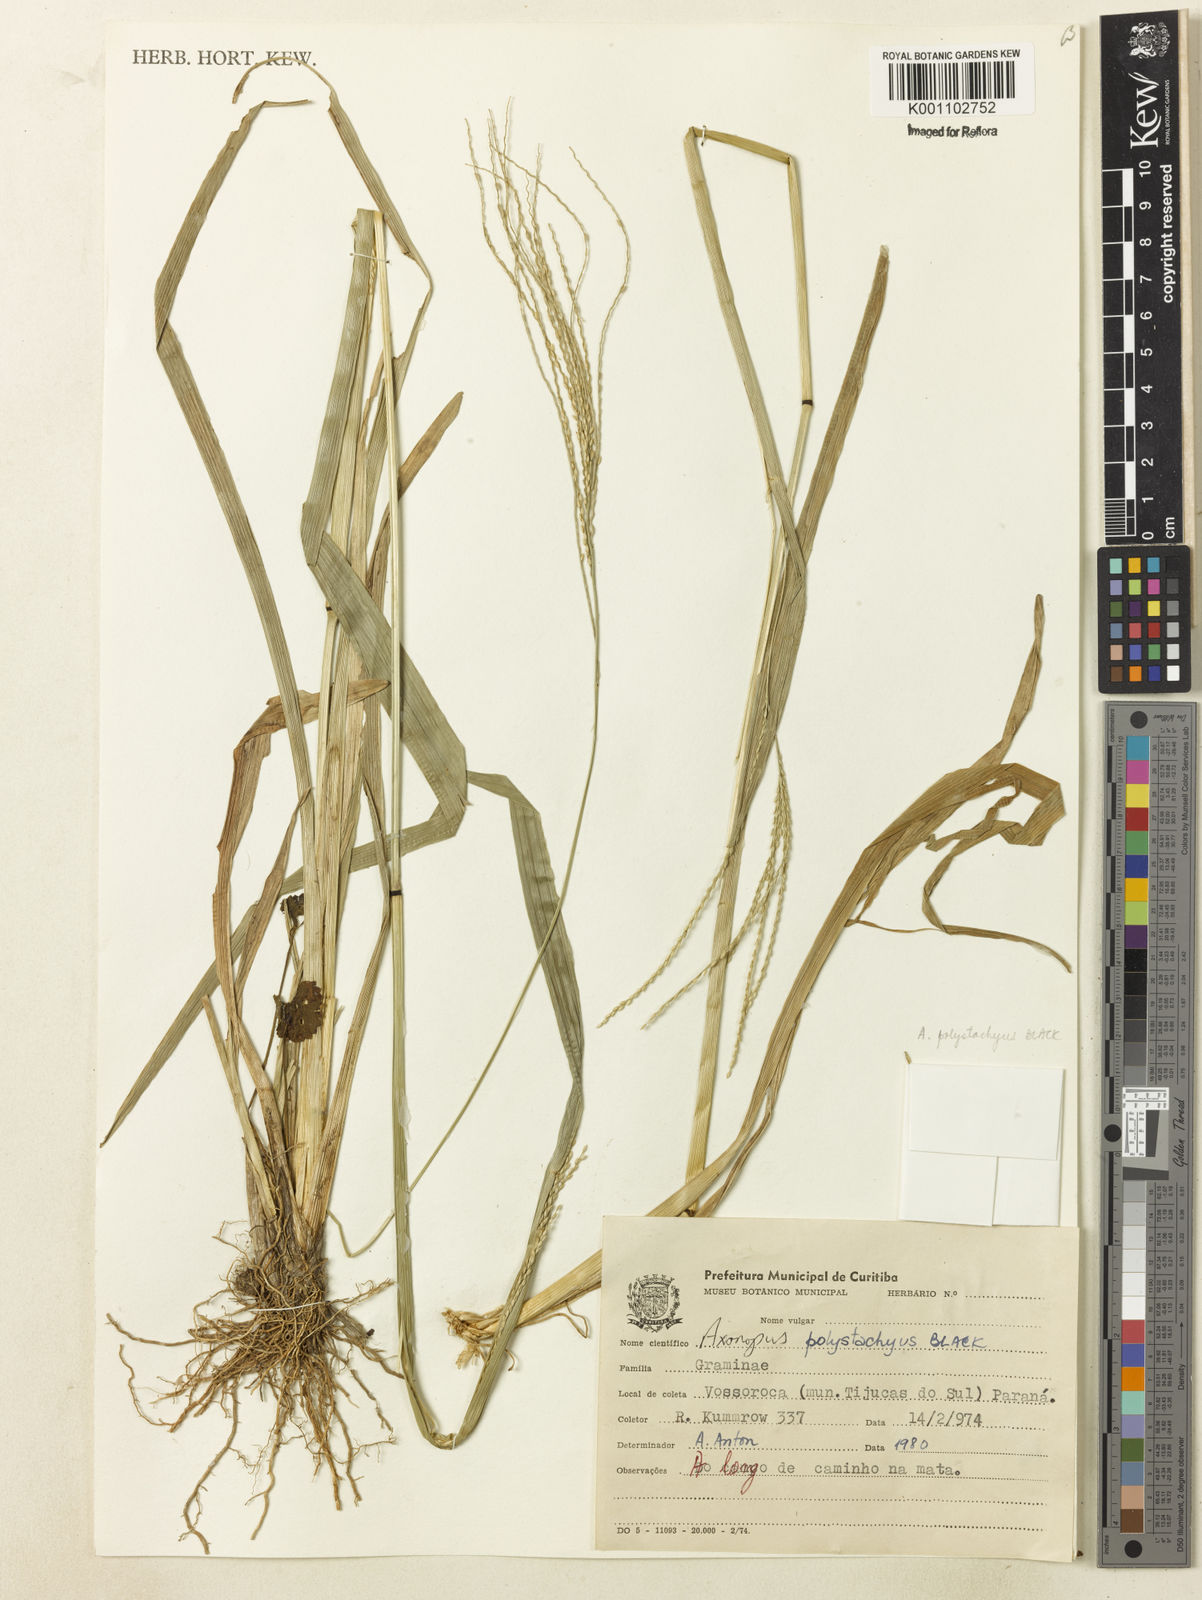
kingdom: Plantae
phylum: Tracheophyta
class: Liliopsida
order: Poales
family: Poaceae
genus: Axonopus
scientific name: Axonopus polystachyus
